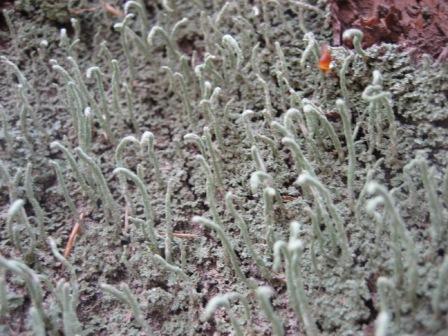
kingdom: Fungi
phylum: Ascomycota
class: Lecanoromycetes
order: Lecanorales
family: Cladoniaceae
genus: Cladonia
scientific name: Cladonia coniocraea
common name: træfods-bægerlav
